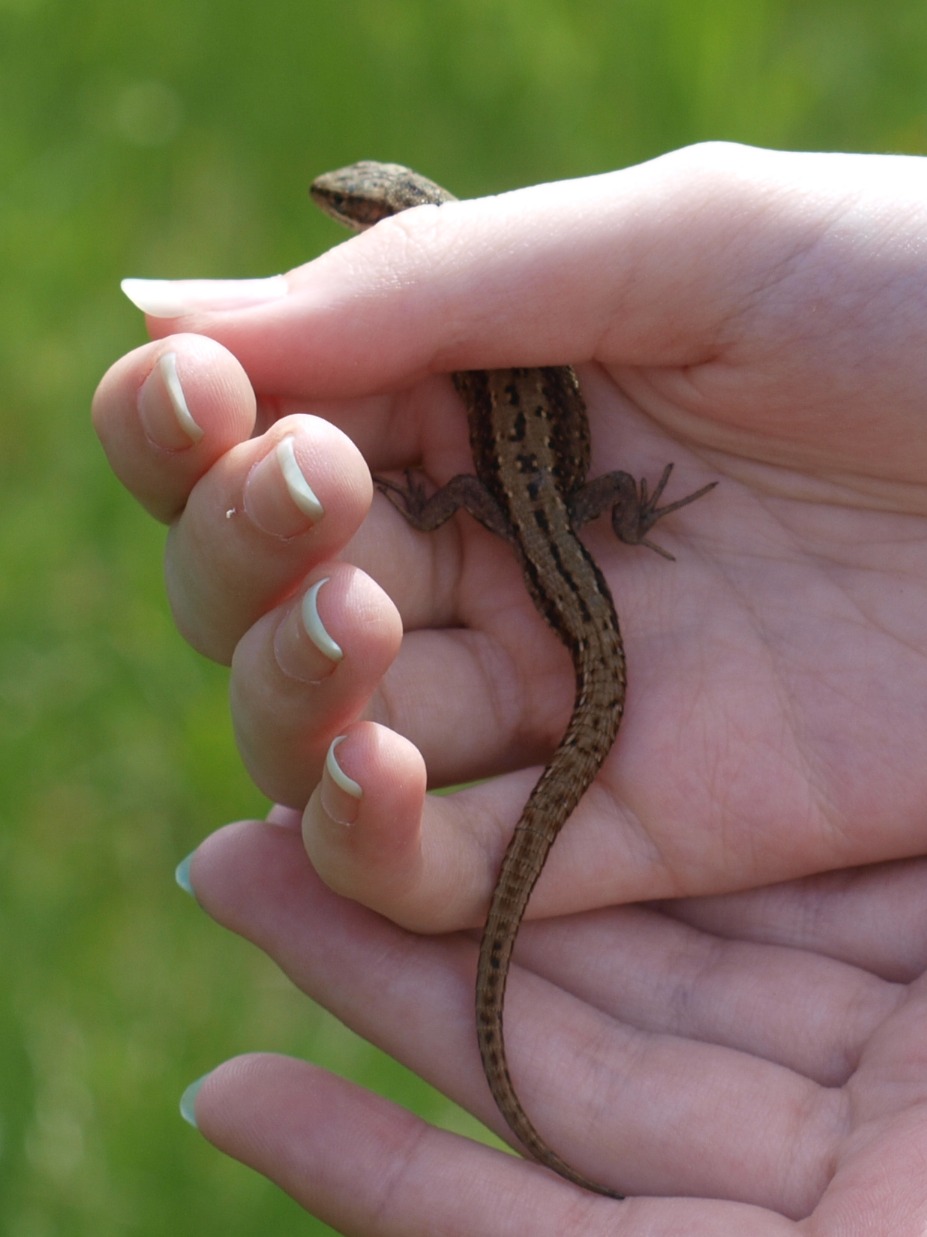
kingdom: Animalia
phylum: Chordata
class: Squamata
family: Lacertidae
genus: Zootoca
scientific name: Zootoca vivipara
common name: Skovfirben
